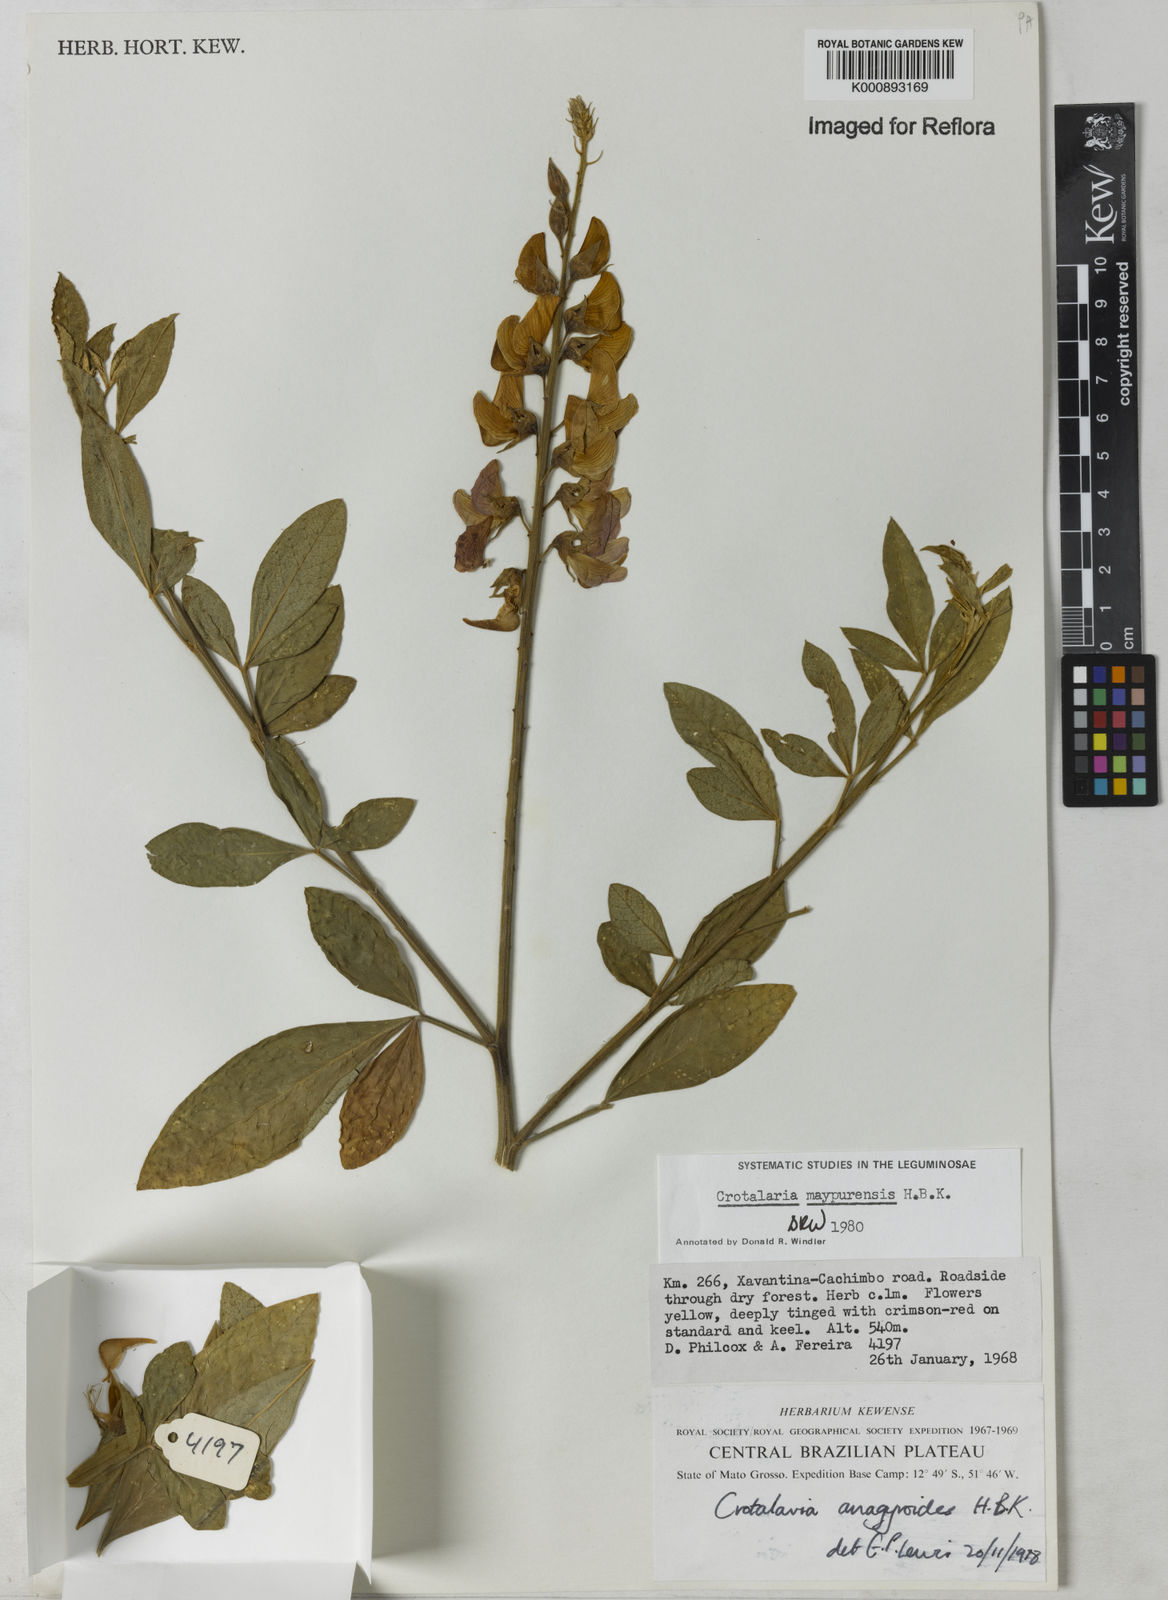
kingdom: Plantae
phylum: Tracheophyta
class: Magnoliopsida
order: Fabales
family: Fabaceae
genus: Crotalaria
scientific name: Crotalaria maypurensis
